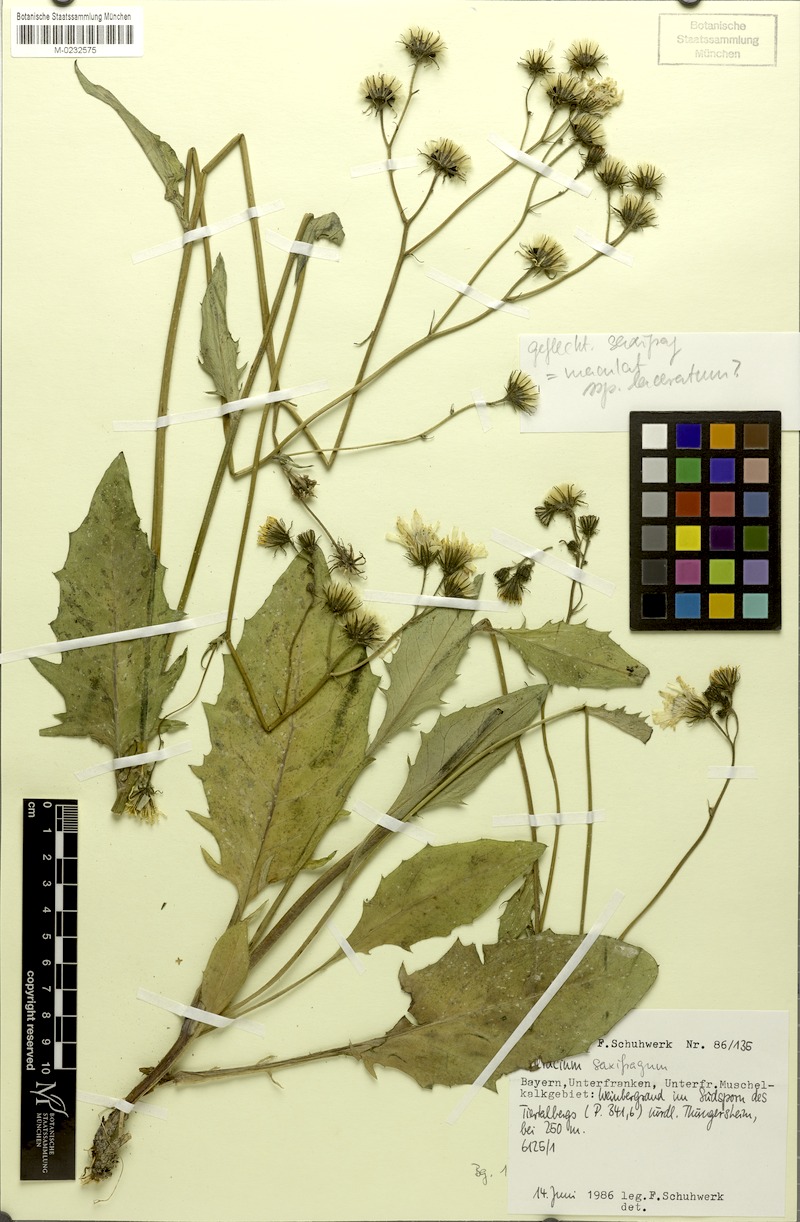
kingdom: Plantae
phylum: Tracheophyta
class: Magnoliopsida
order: Asterales
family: Asteraceae
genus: Hieracium
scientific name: Hieracium saxifragum
